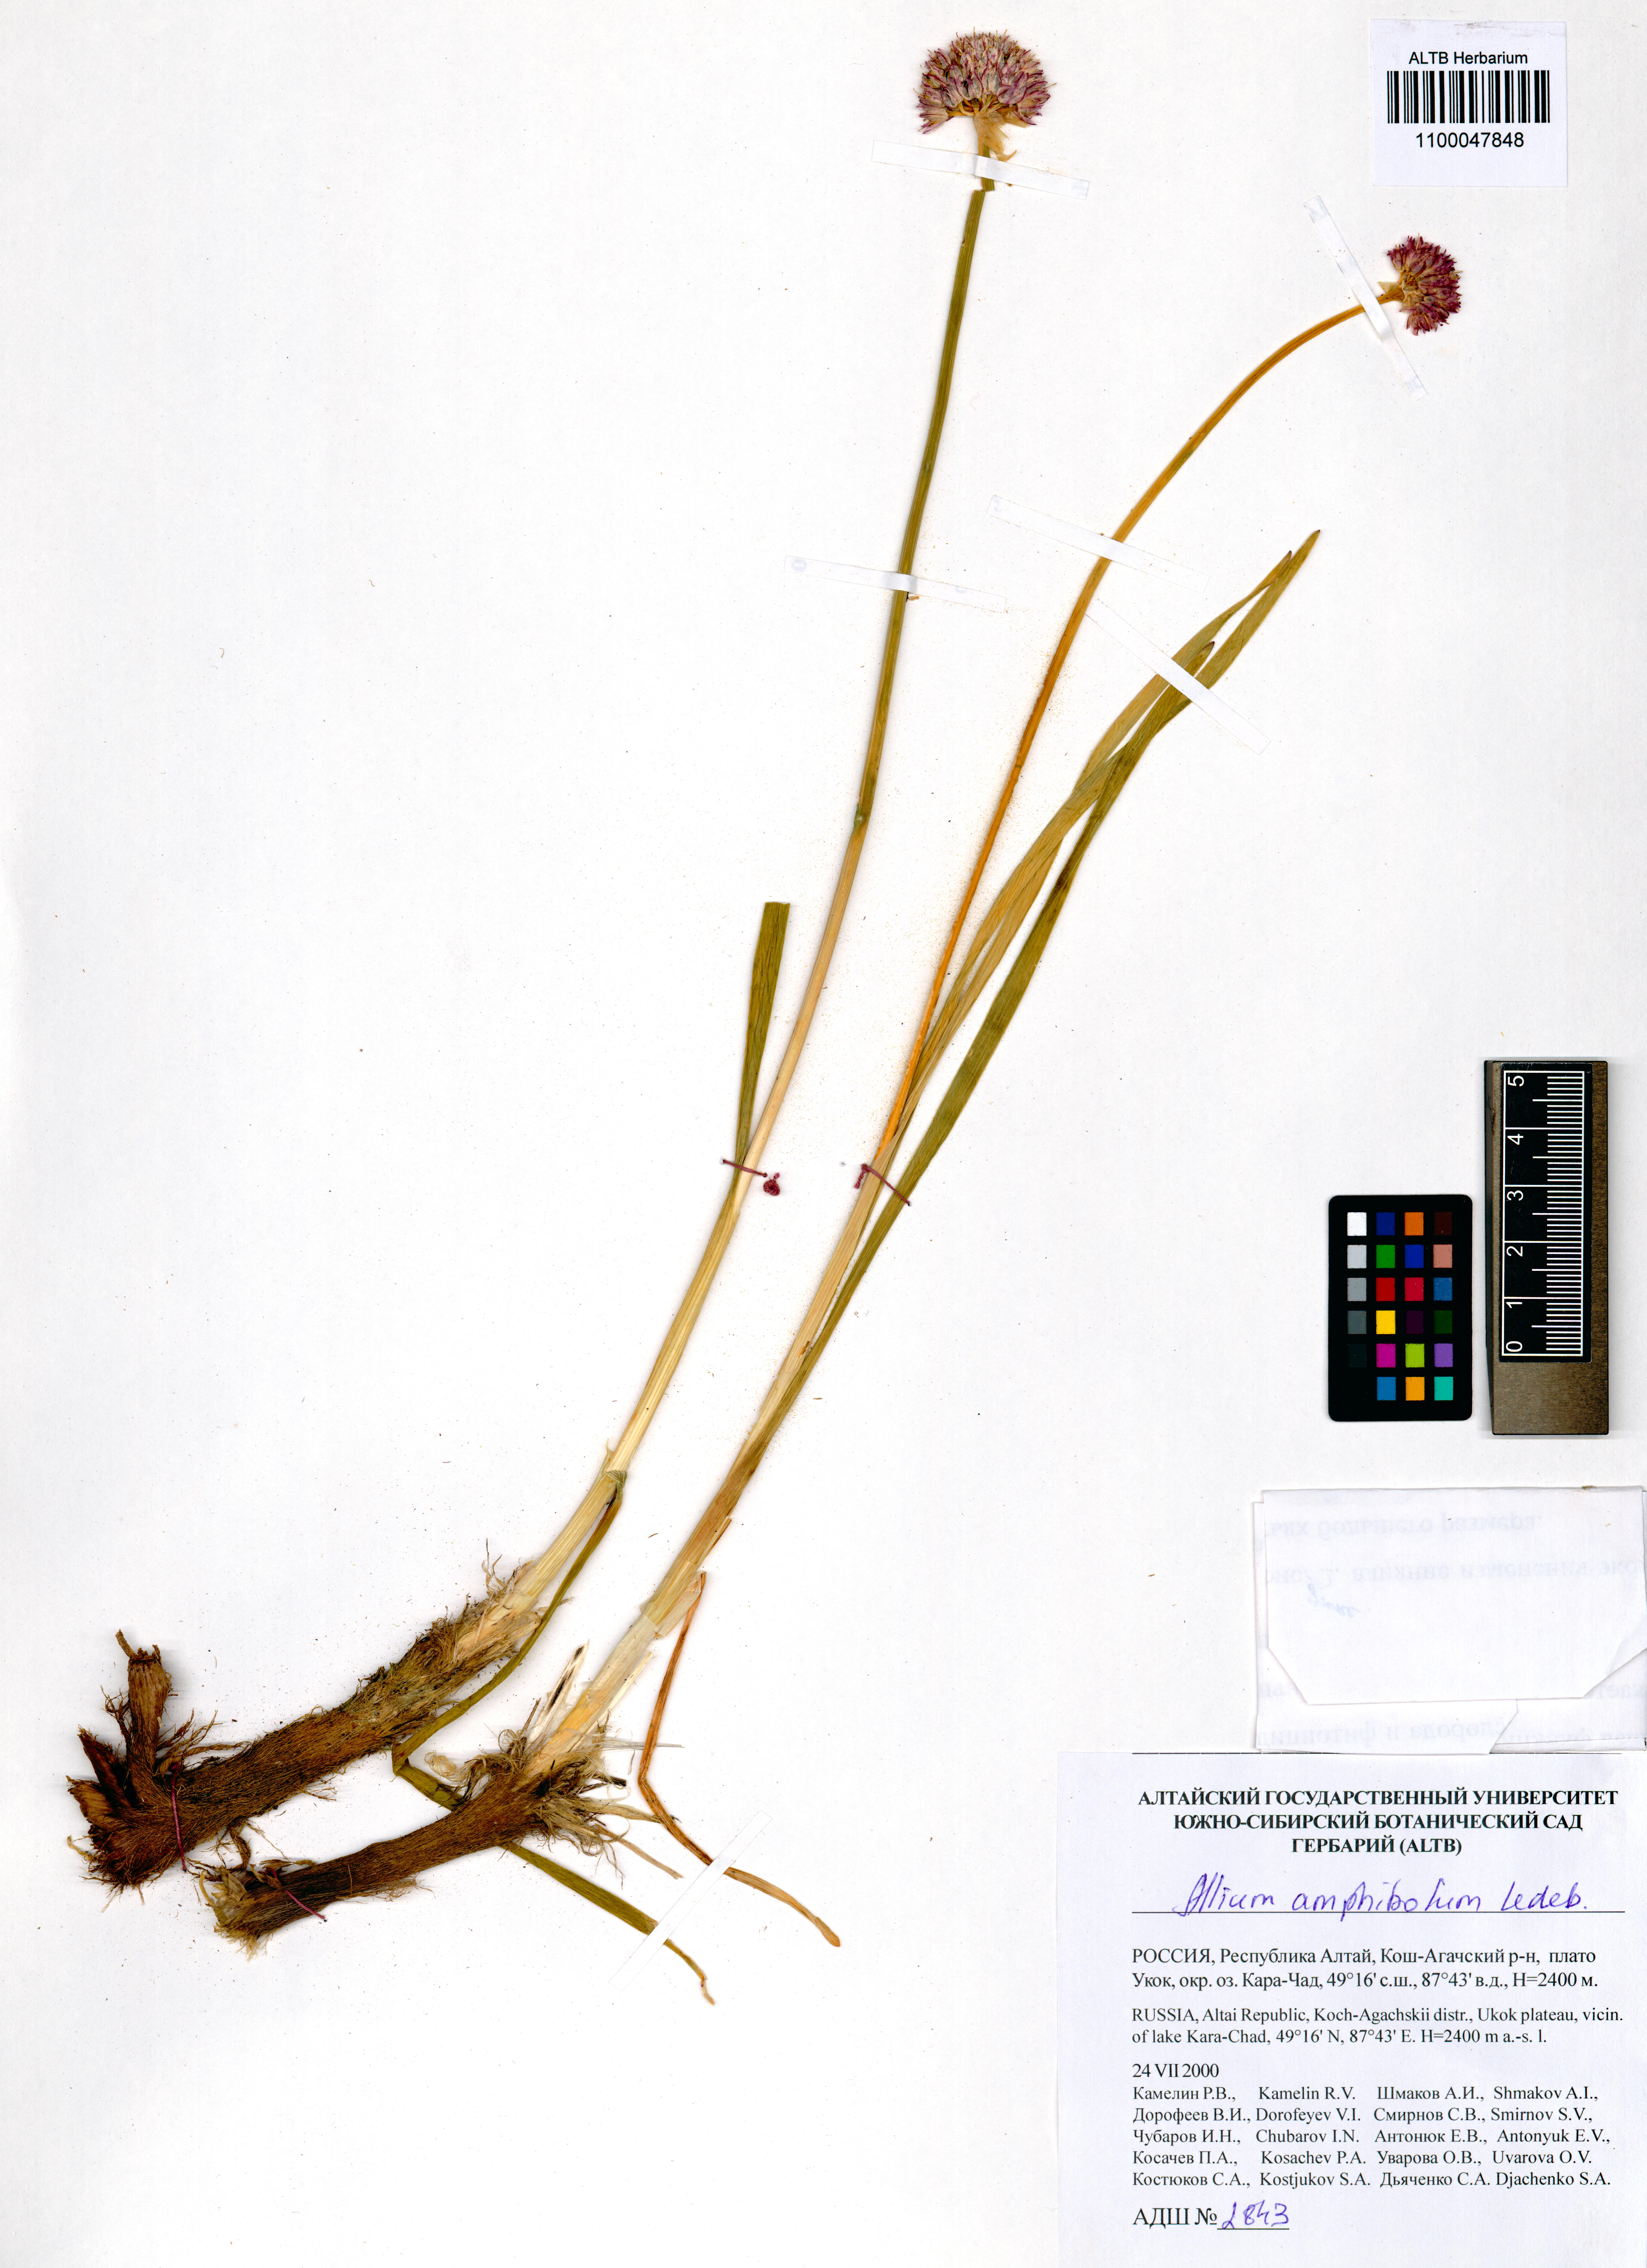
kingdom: Plantae
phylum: Tracheophyta
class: Liliopsida
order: Asparagales
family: Amaryllidaceae
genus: Allium
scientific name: Allium amphibolum
